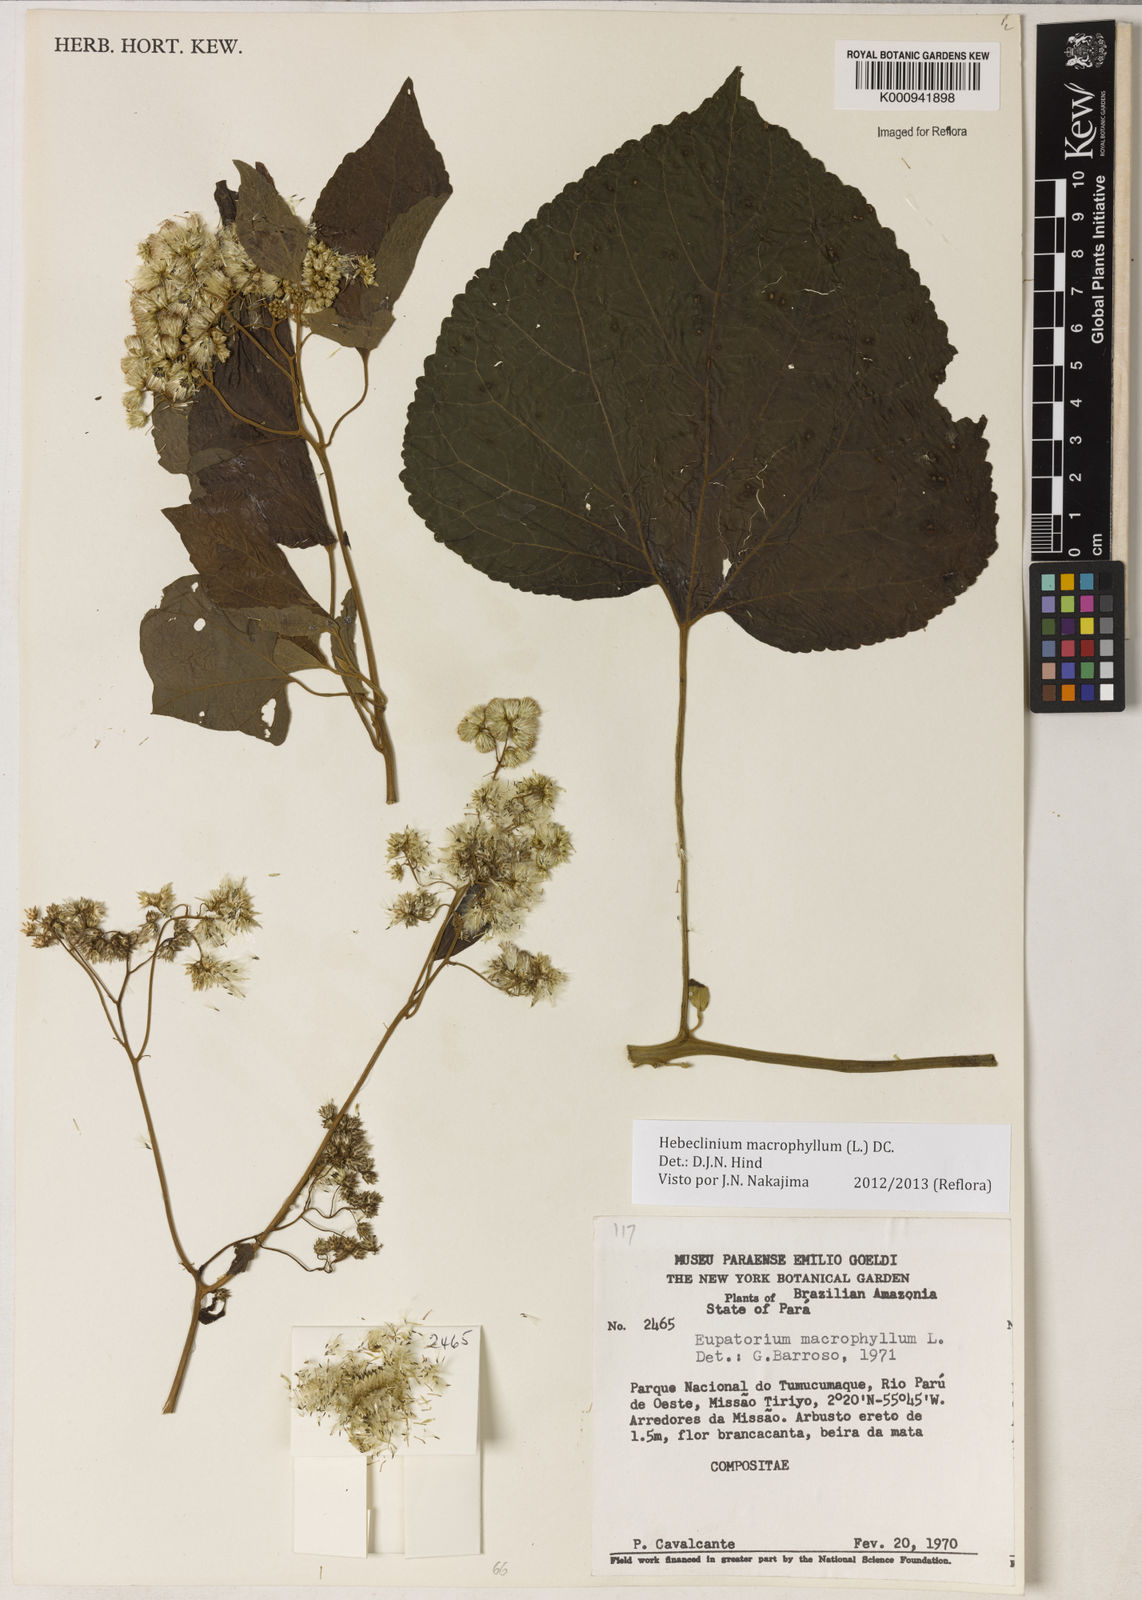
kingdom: Plantae
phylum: Tracheophyta
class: Magnoliopsida
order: Asterales
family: Asteraceae
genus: Hebeclinium
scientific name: Hebeclinium macrophyllum
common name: Largeleaf thoroughwort
